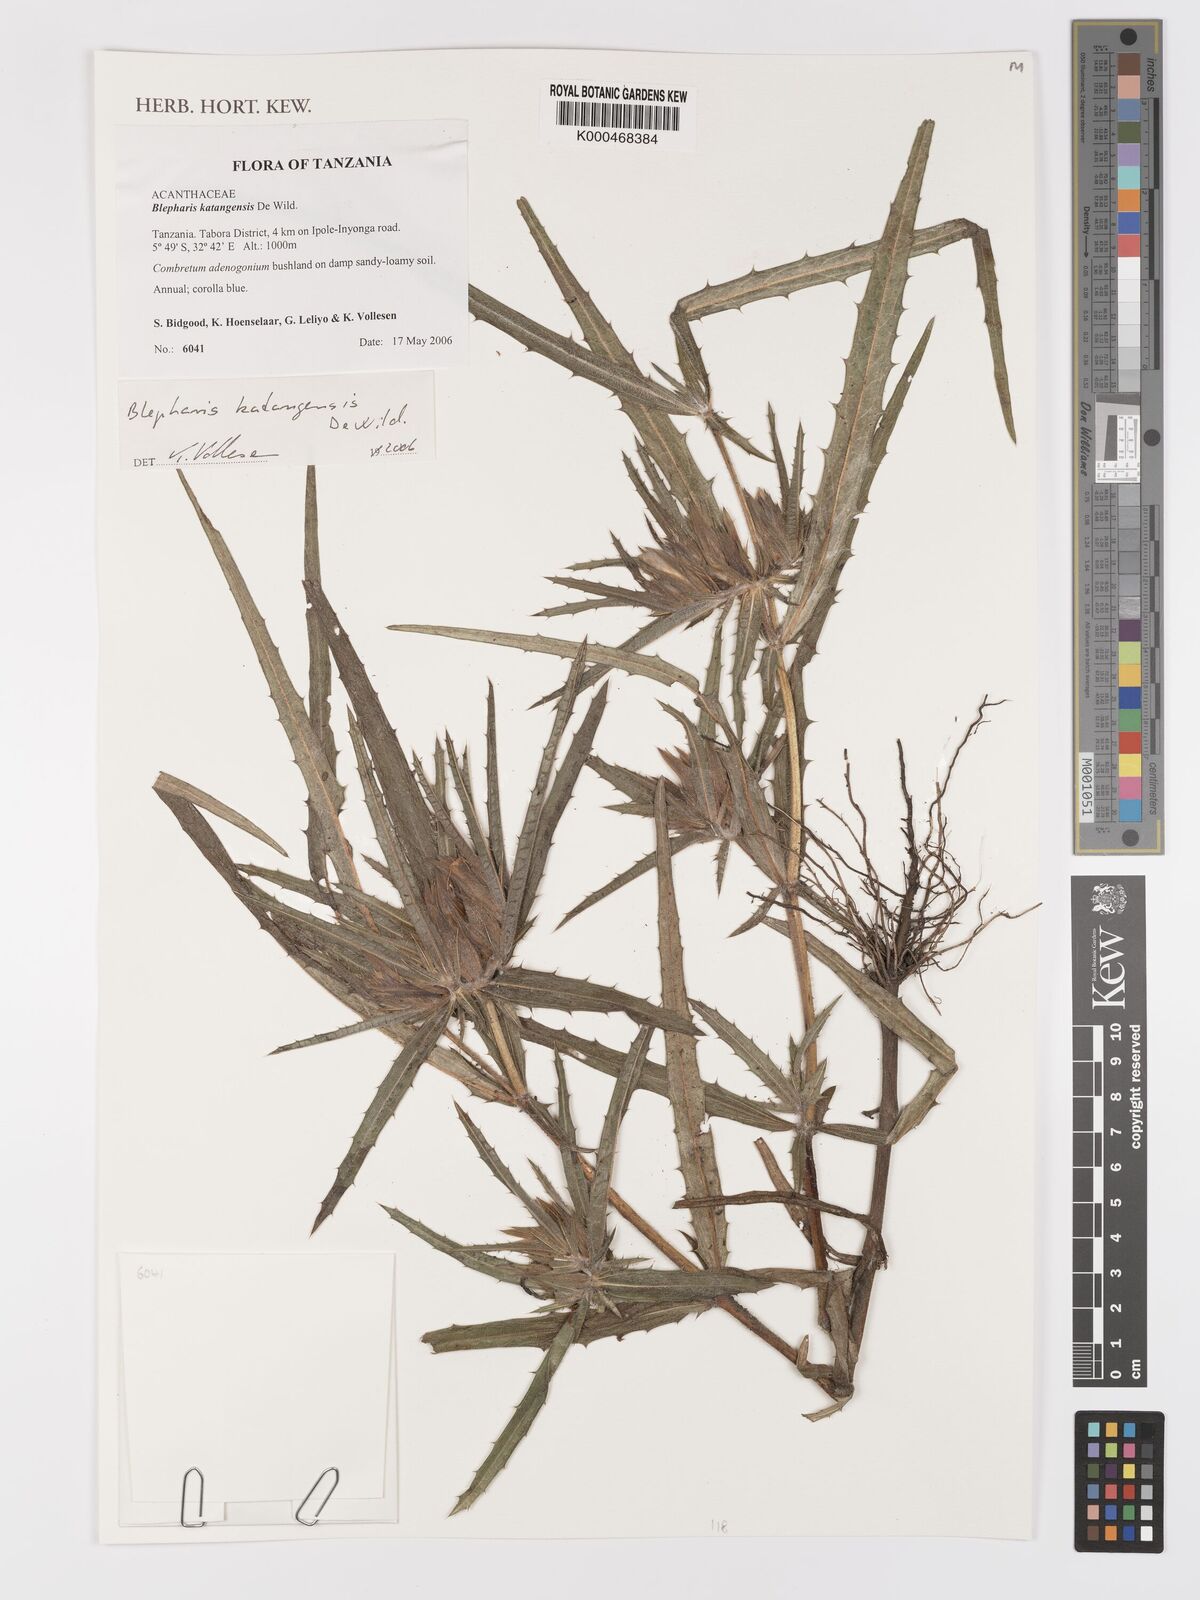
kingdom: Plantae
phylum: Tracheophyta
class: Magnoliopsida
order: Lamiales
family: Acanthaceae
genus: Blepharis
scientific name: Blepharis katangensis
